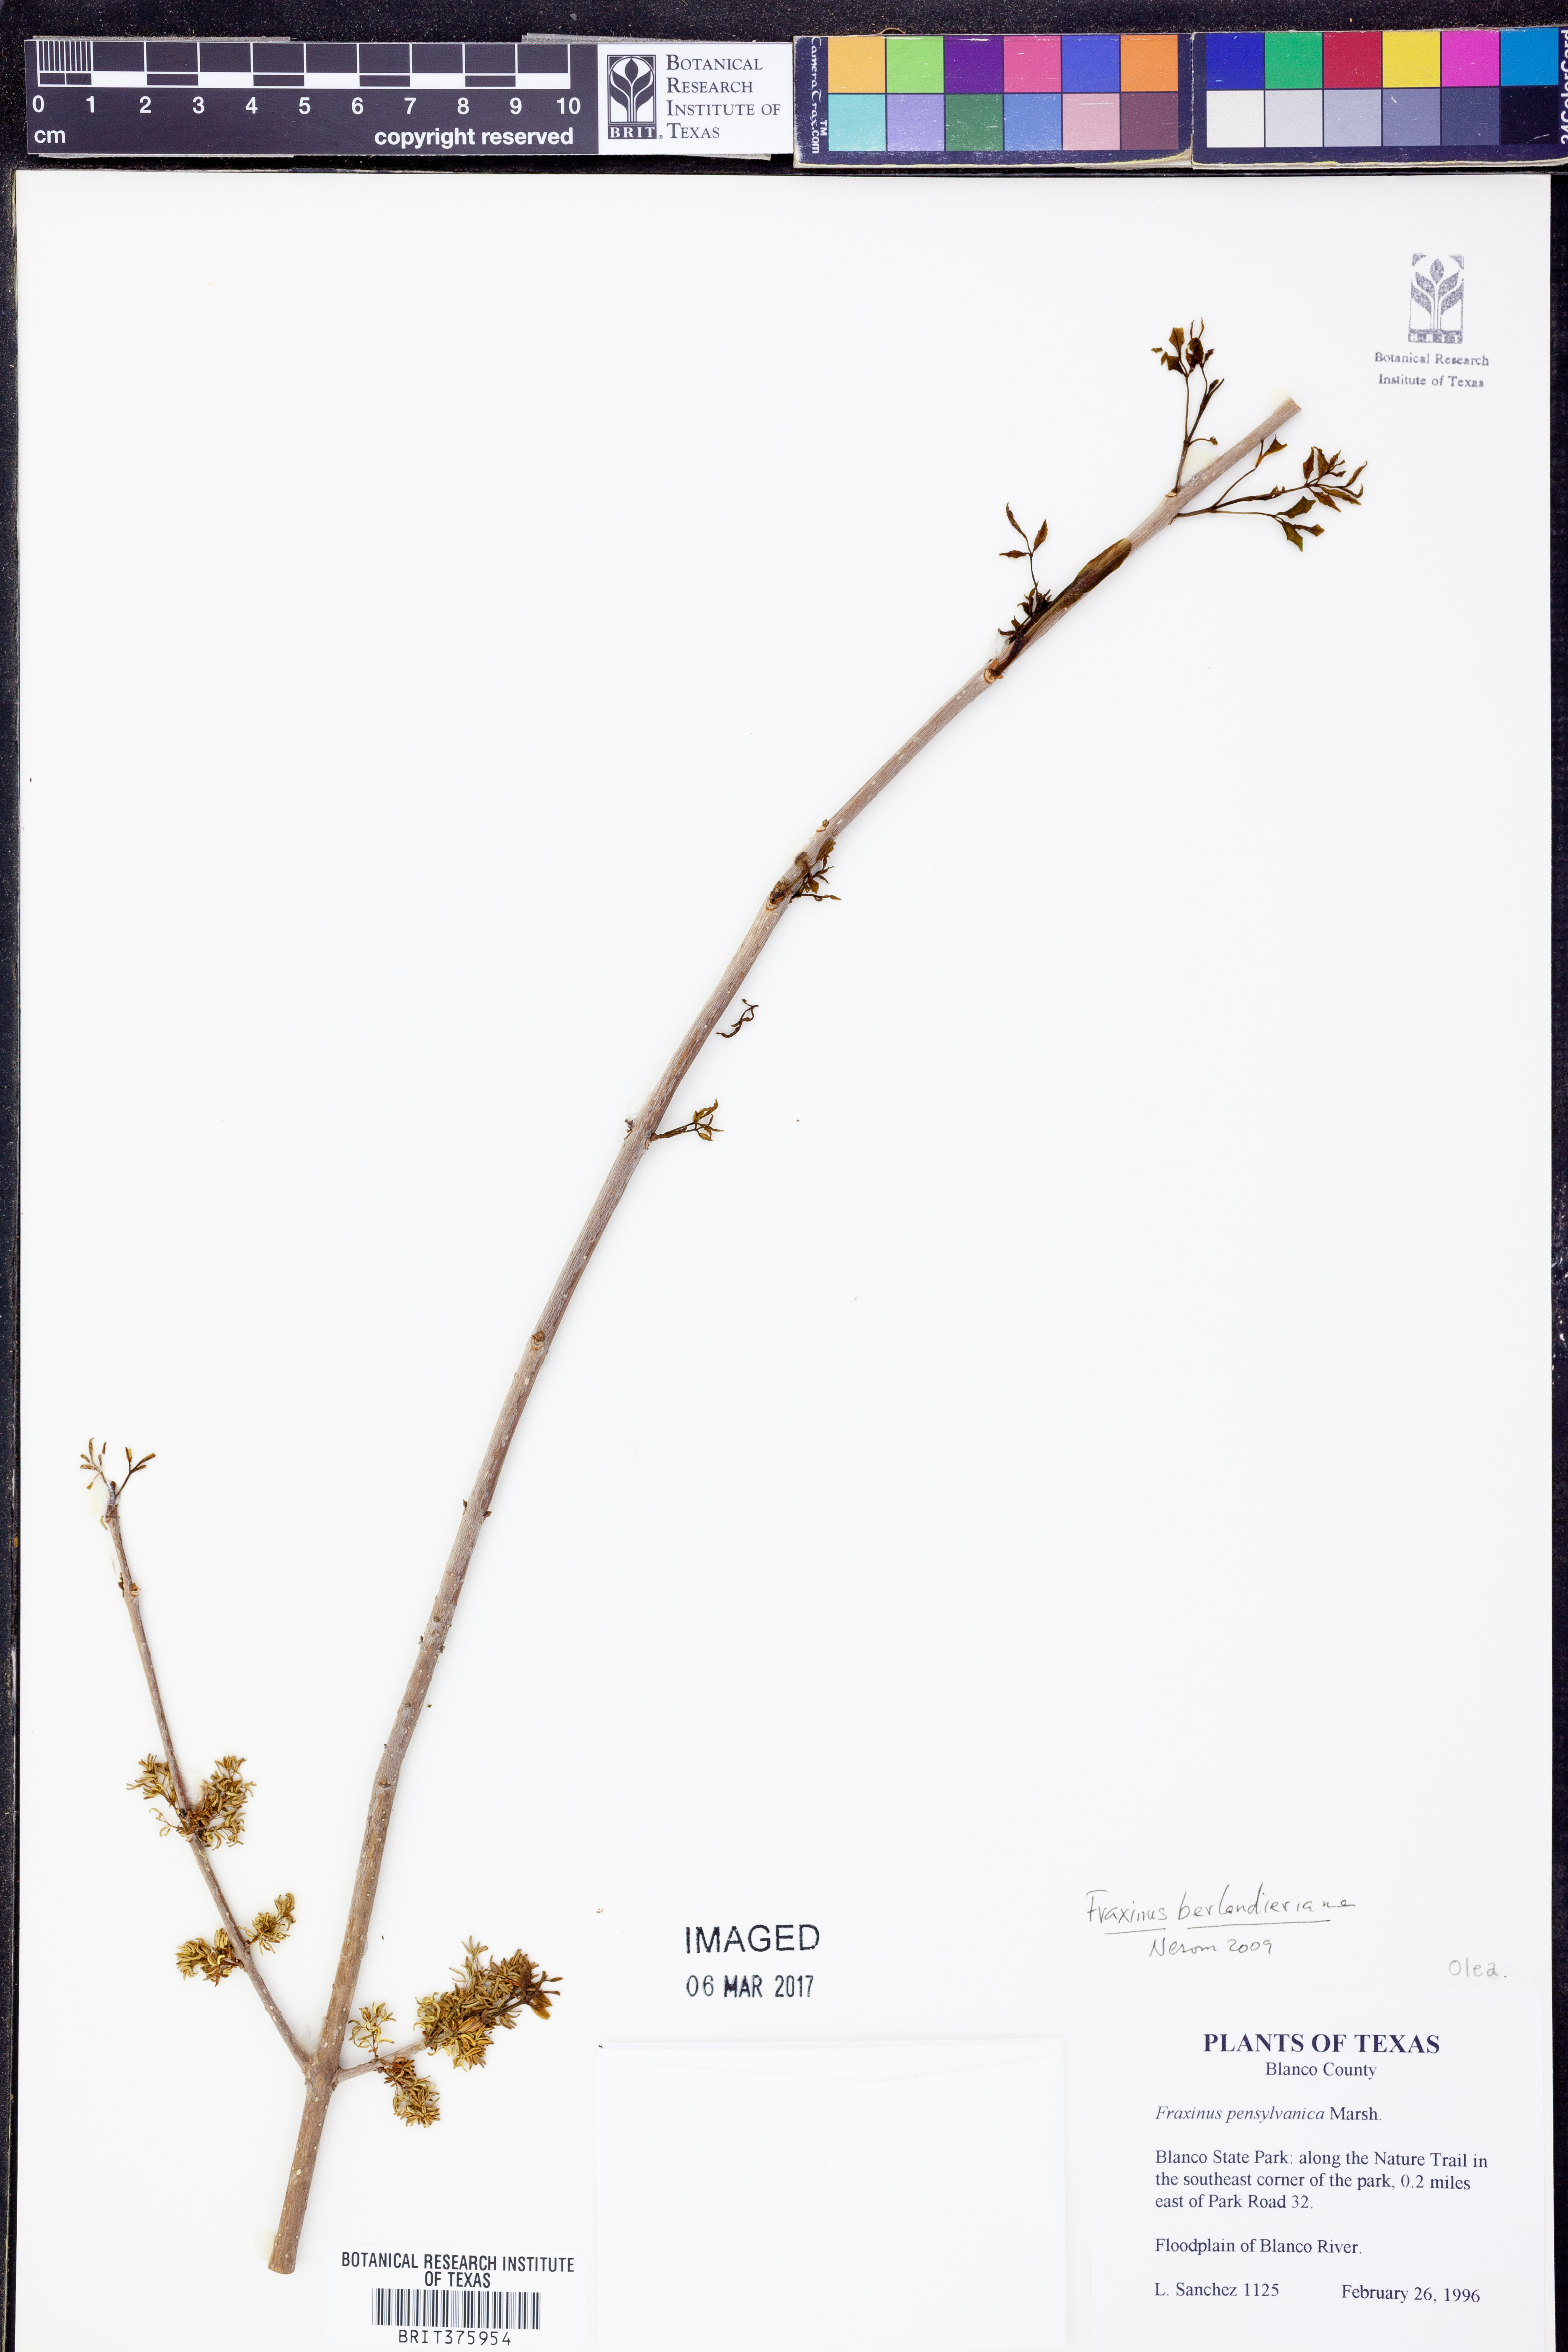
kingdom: Plantae
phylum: Tracheophyta
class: Magnoliopsida
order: Lamiales
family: Oleaceae
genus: Fraxinus
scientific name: Fraxinus berlandieriana
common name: Berlandier ash
